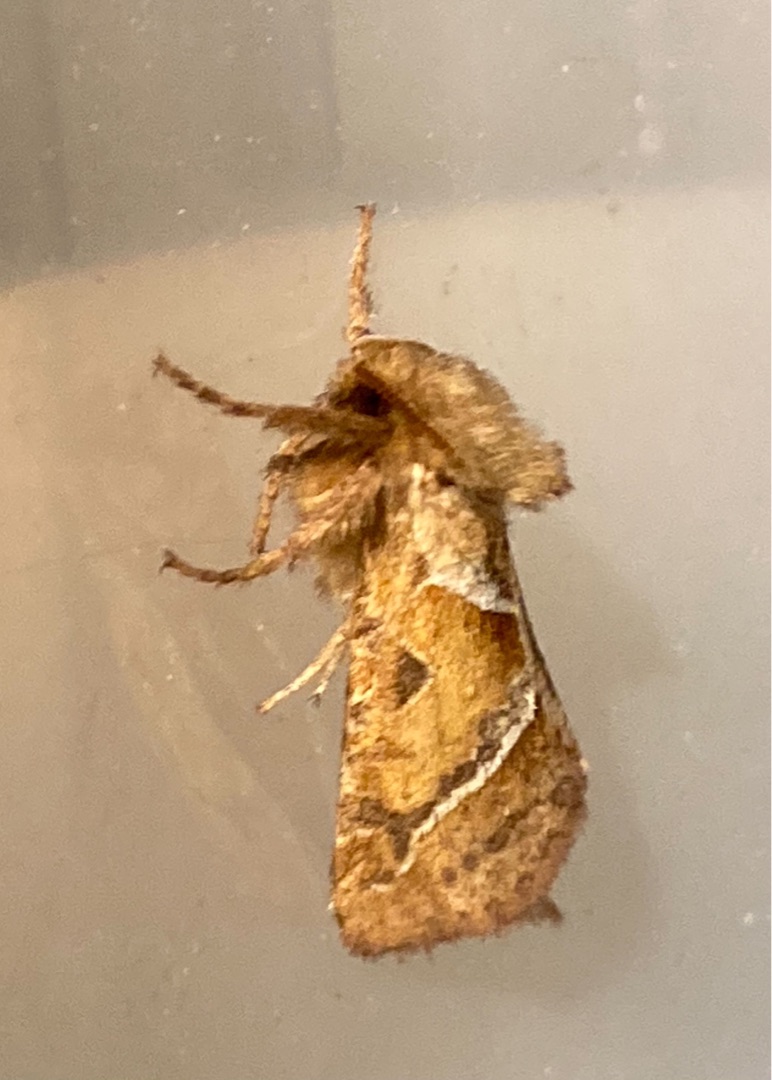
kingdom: Animalia
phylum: Arthropoda
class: Insecta
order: Lepidoptera
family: Hepialidae
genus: Triodia
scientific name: Triodia sylvina
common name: Skræpperodæder
